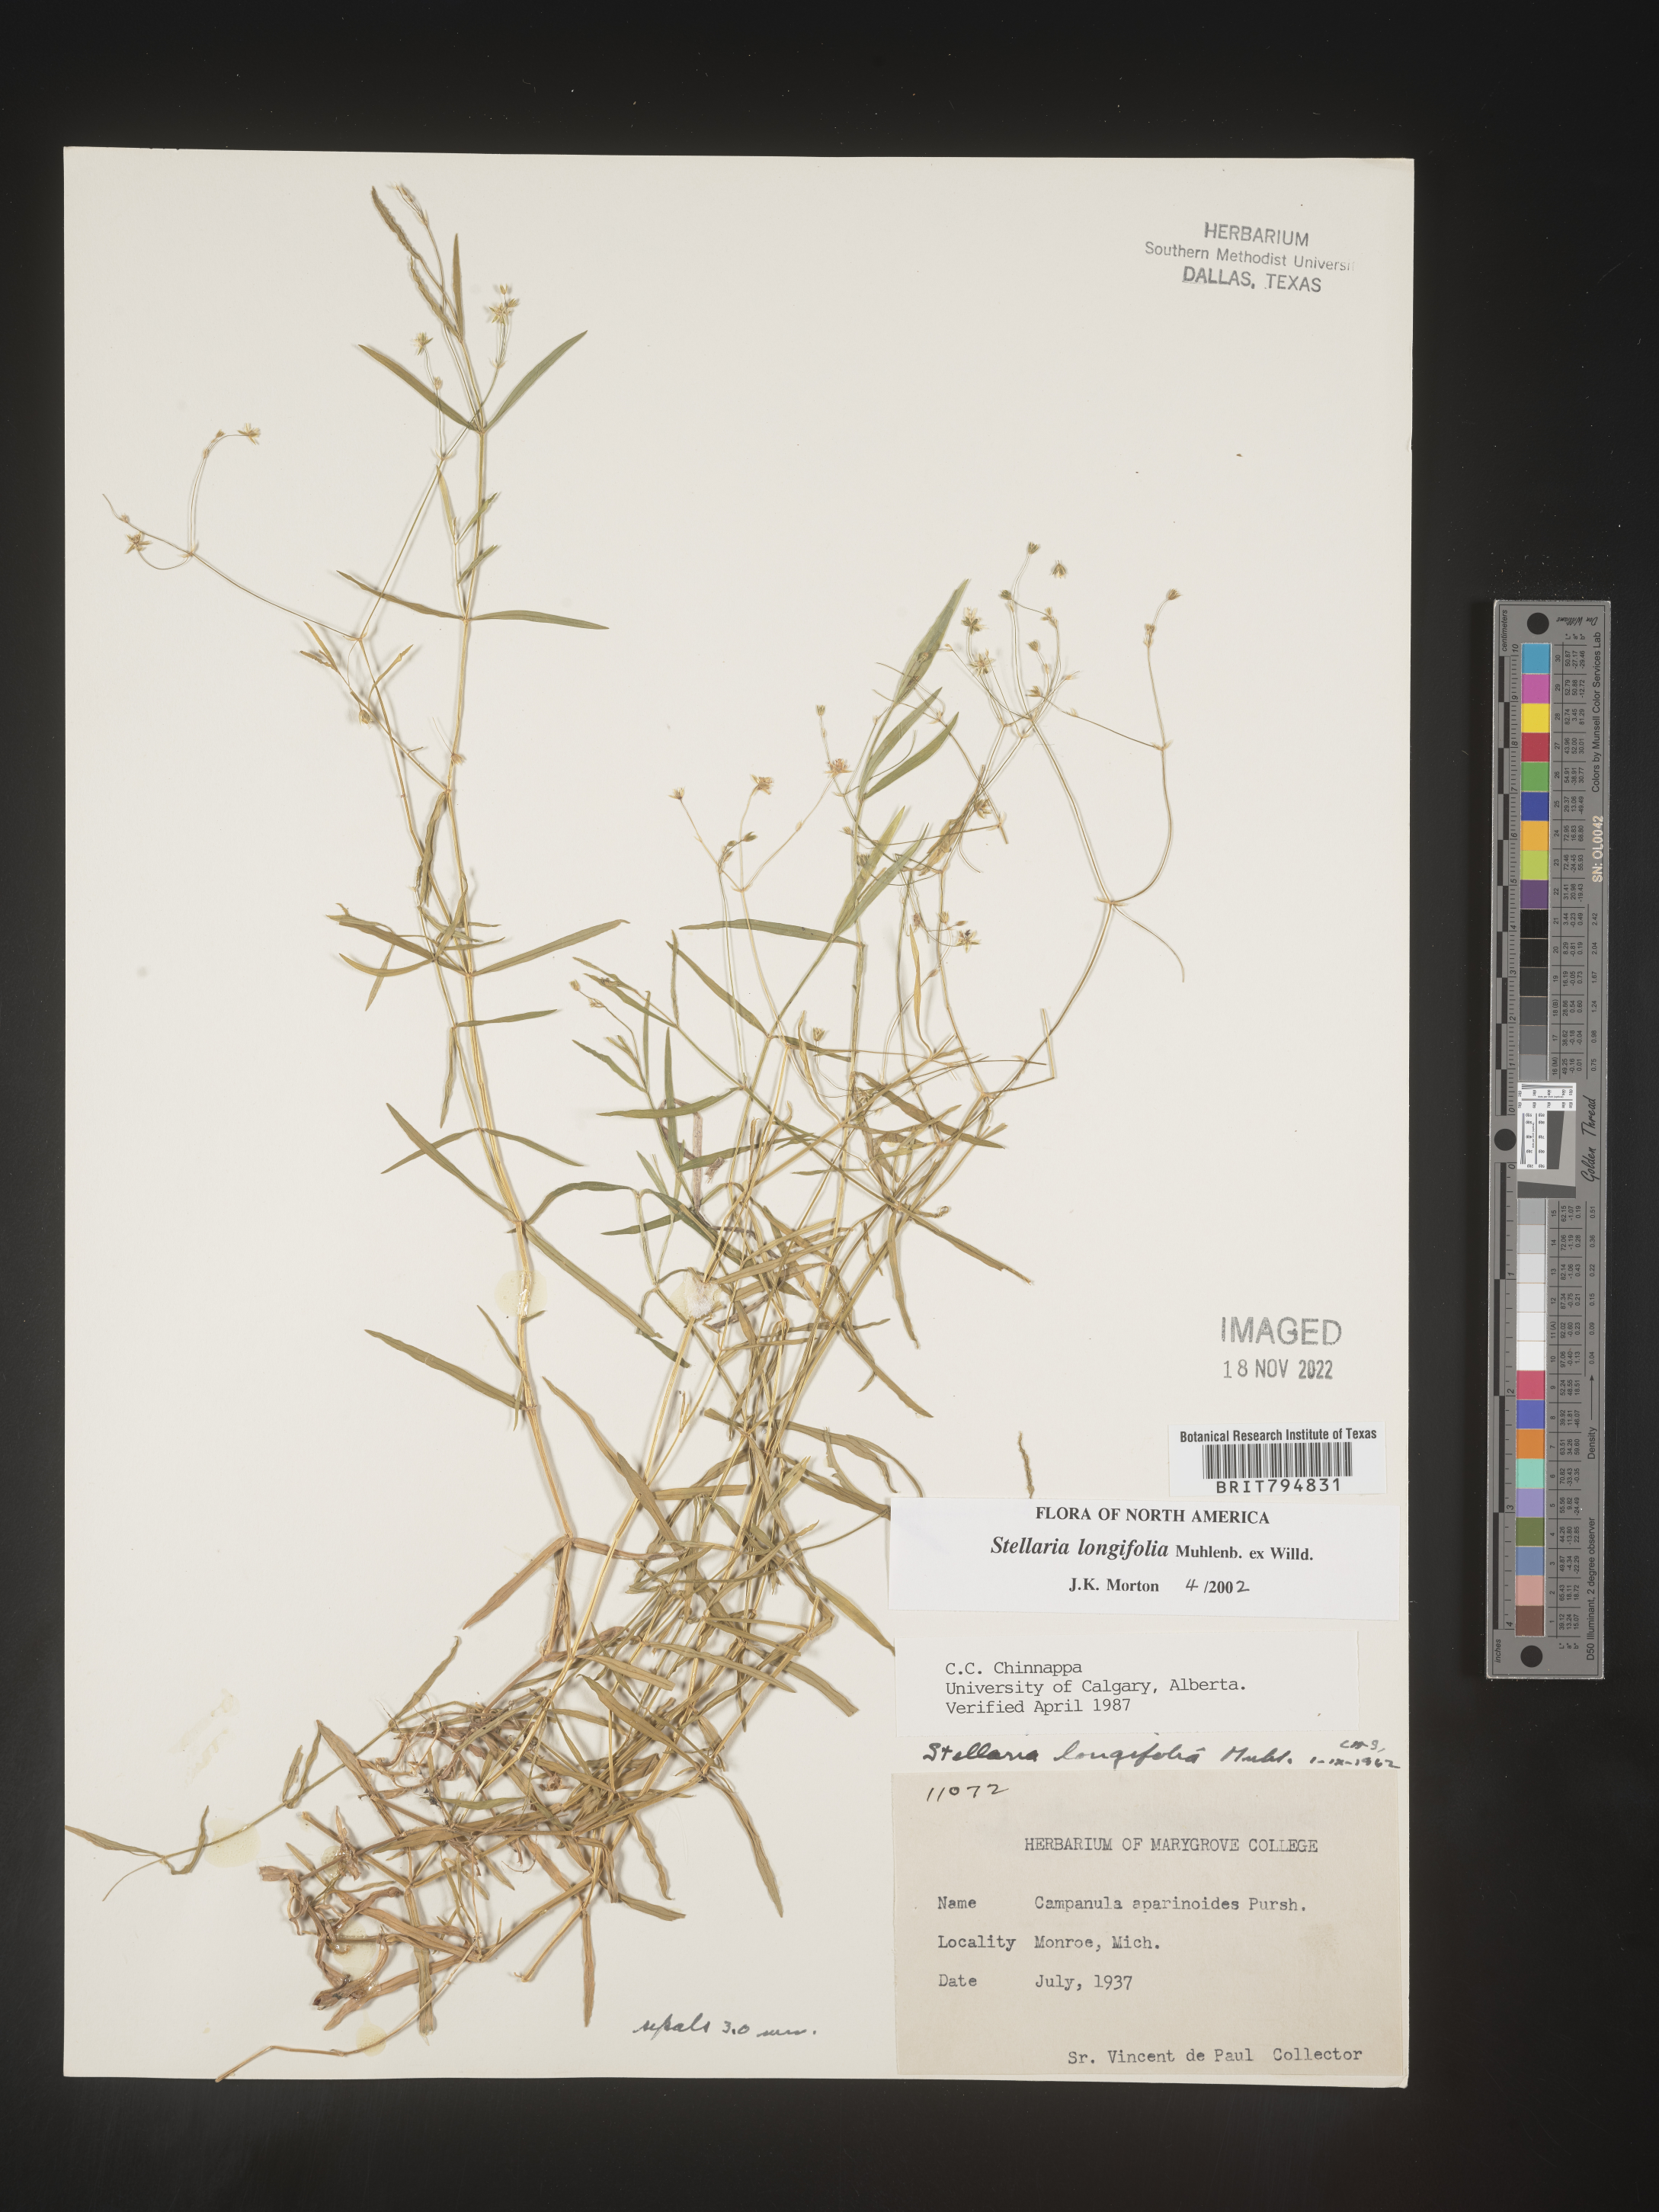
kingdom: Plantae
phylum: Tracheophyta
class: Magnoliopsida
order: Caryophyllales
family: Caryophyllaceae
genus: Stellaria
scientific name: Stellaria longifolia
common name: Long-leaved chickweed
